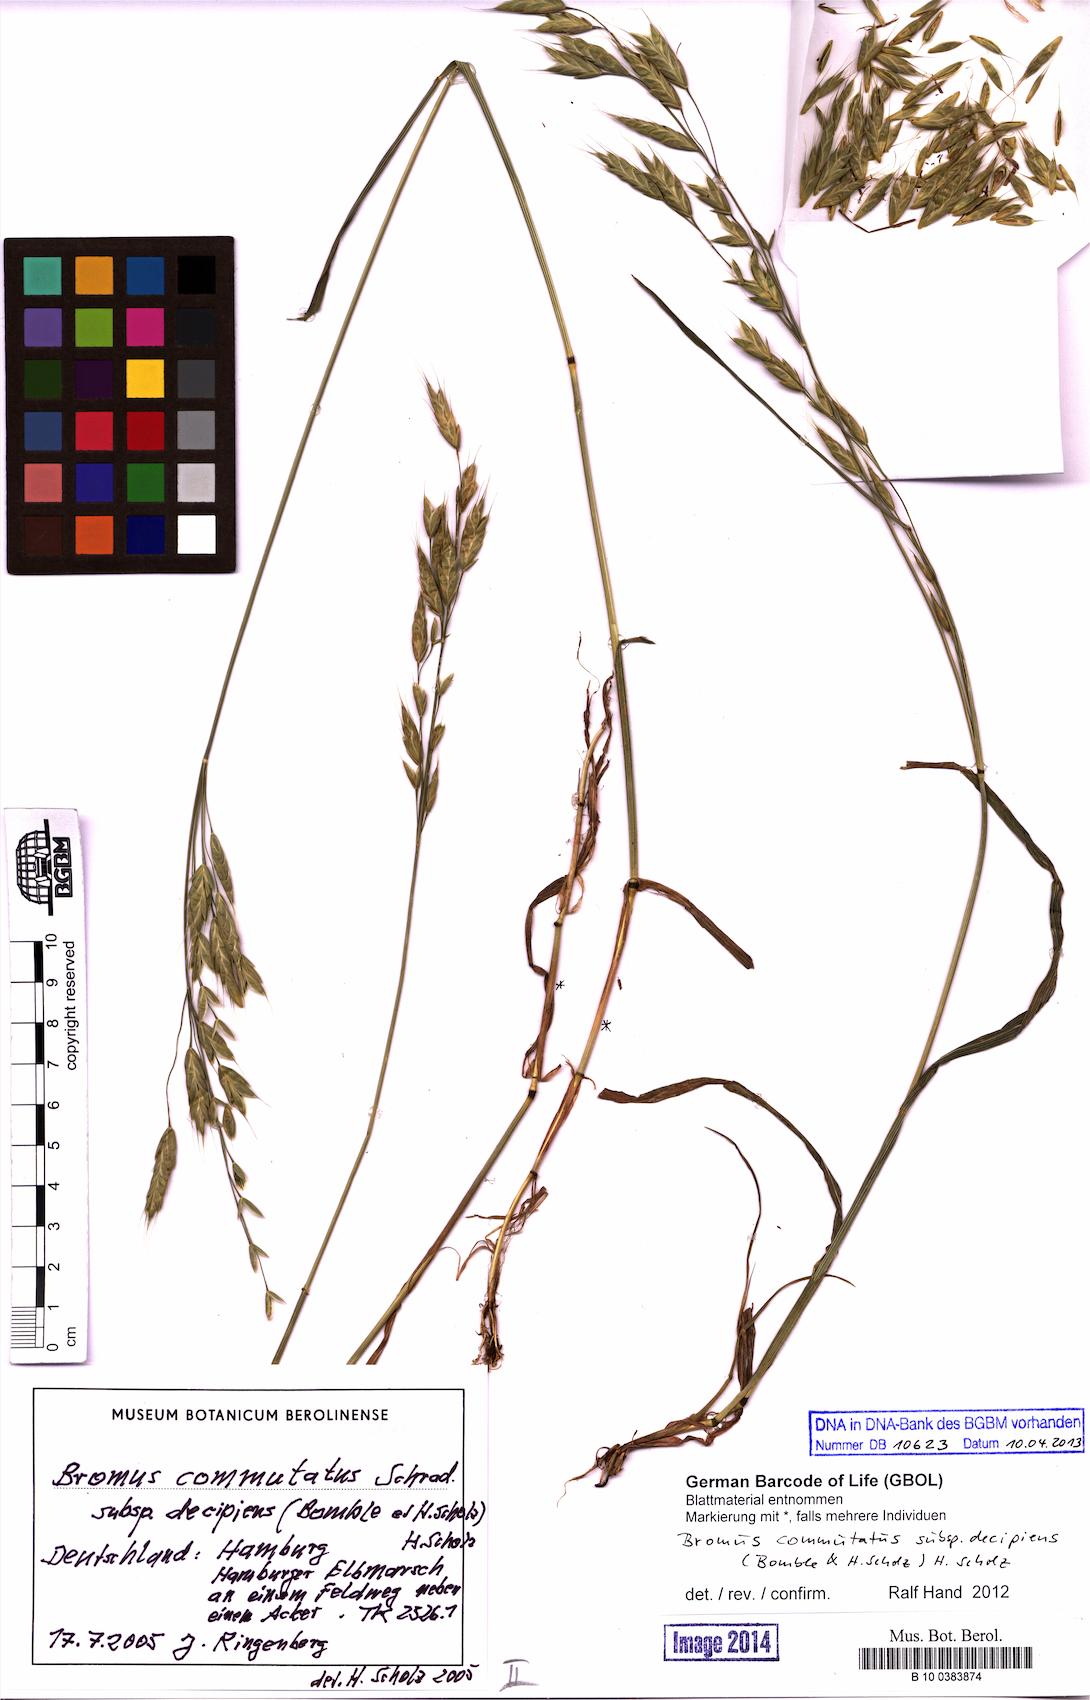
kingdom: Plantae
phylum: Tracheophyta
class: Liliopsida
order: Poales
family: Poaceae
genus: Bromus
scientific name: Bromus commutatus
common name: Meadow brome
